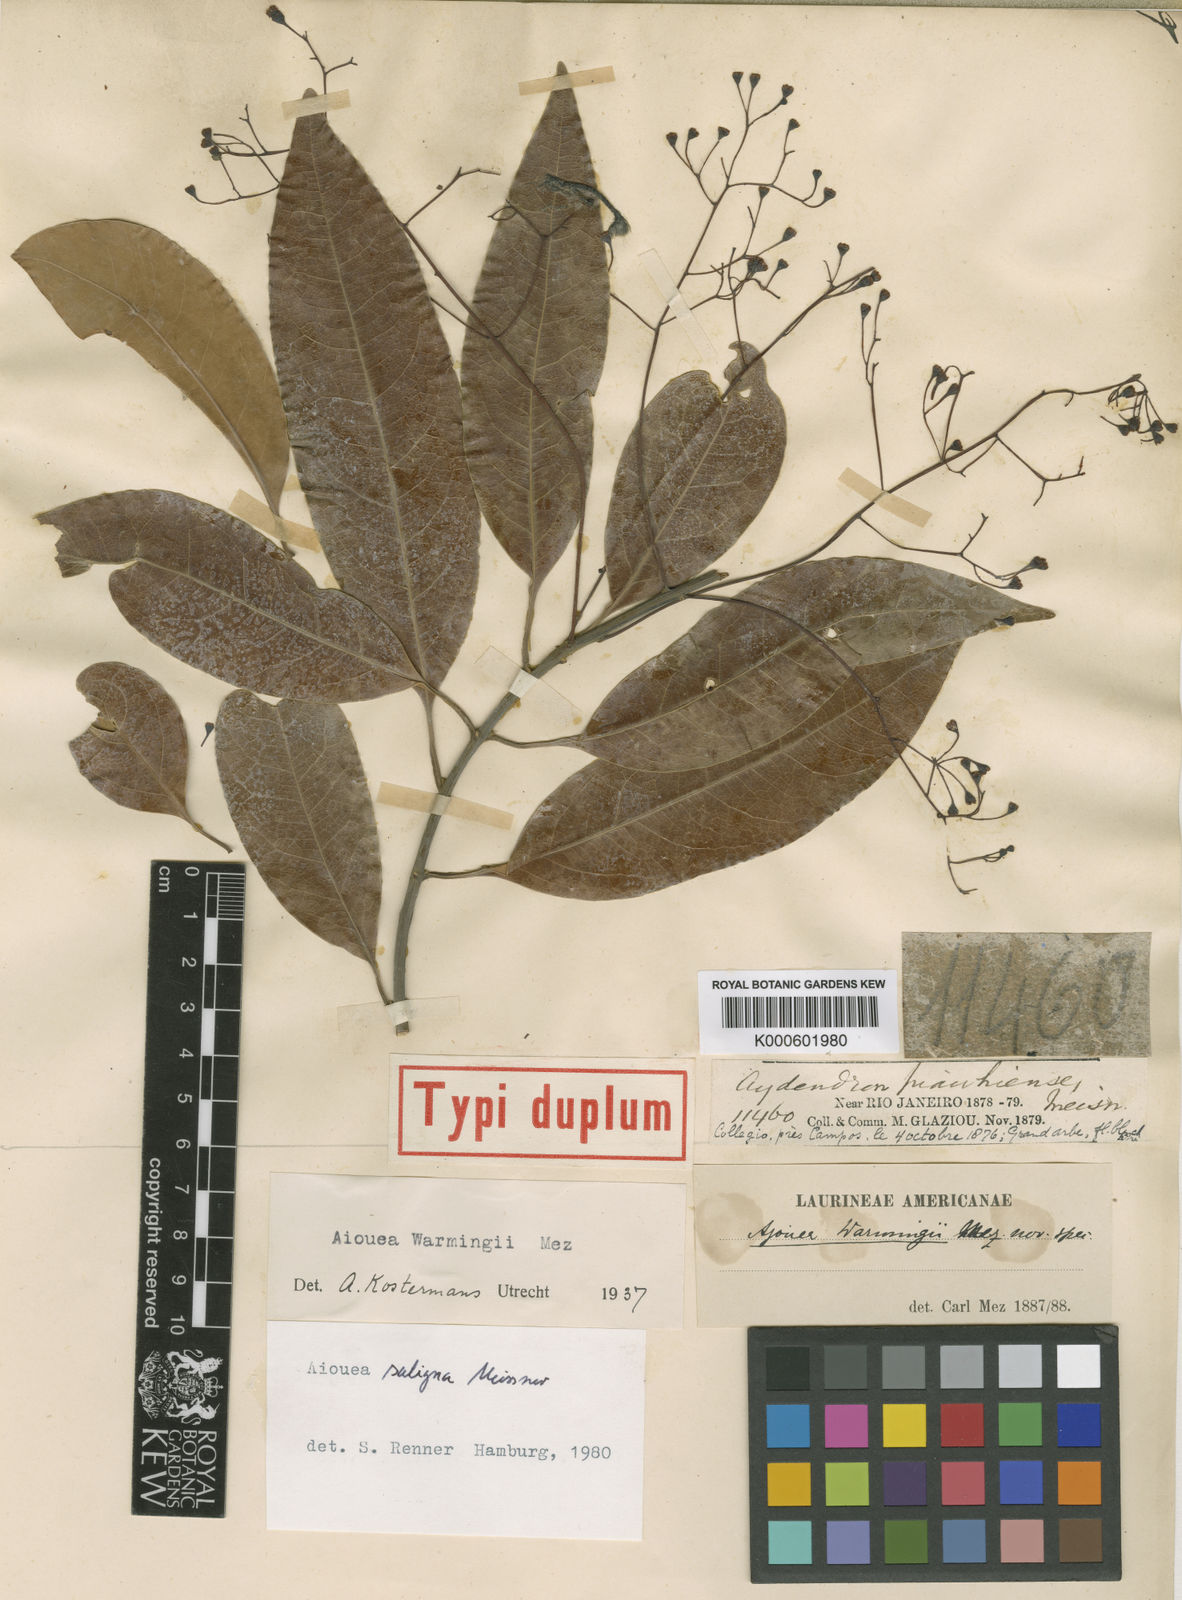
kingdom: Plantae
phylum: Tracheophyta
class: Magnoliopsida
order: Laurales
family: Lauraceae
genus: Aiouea
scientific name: Aiouea saligna
